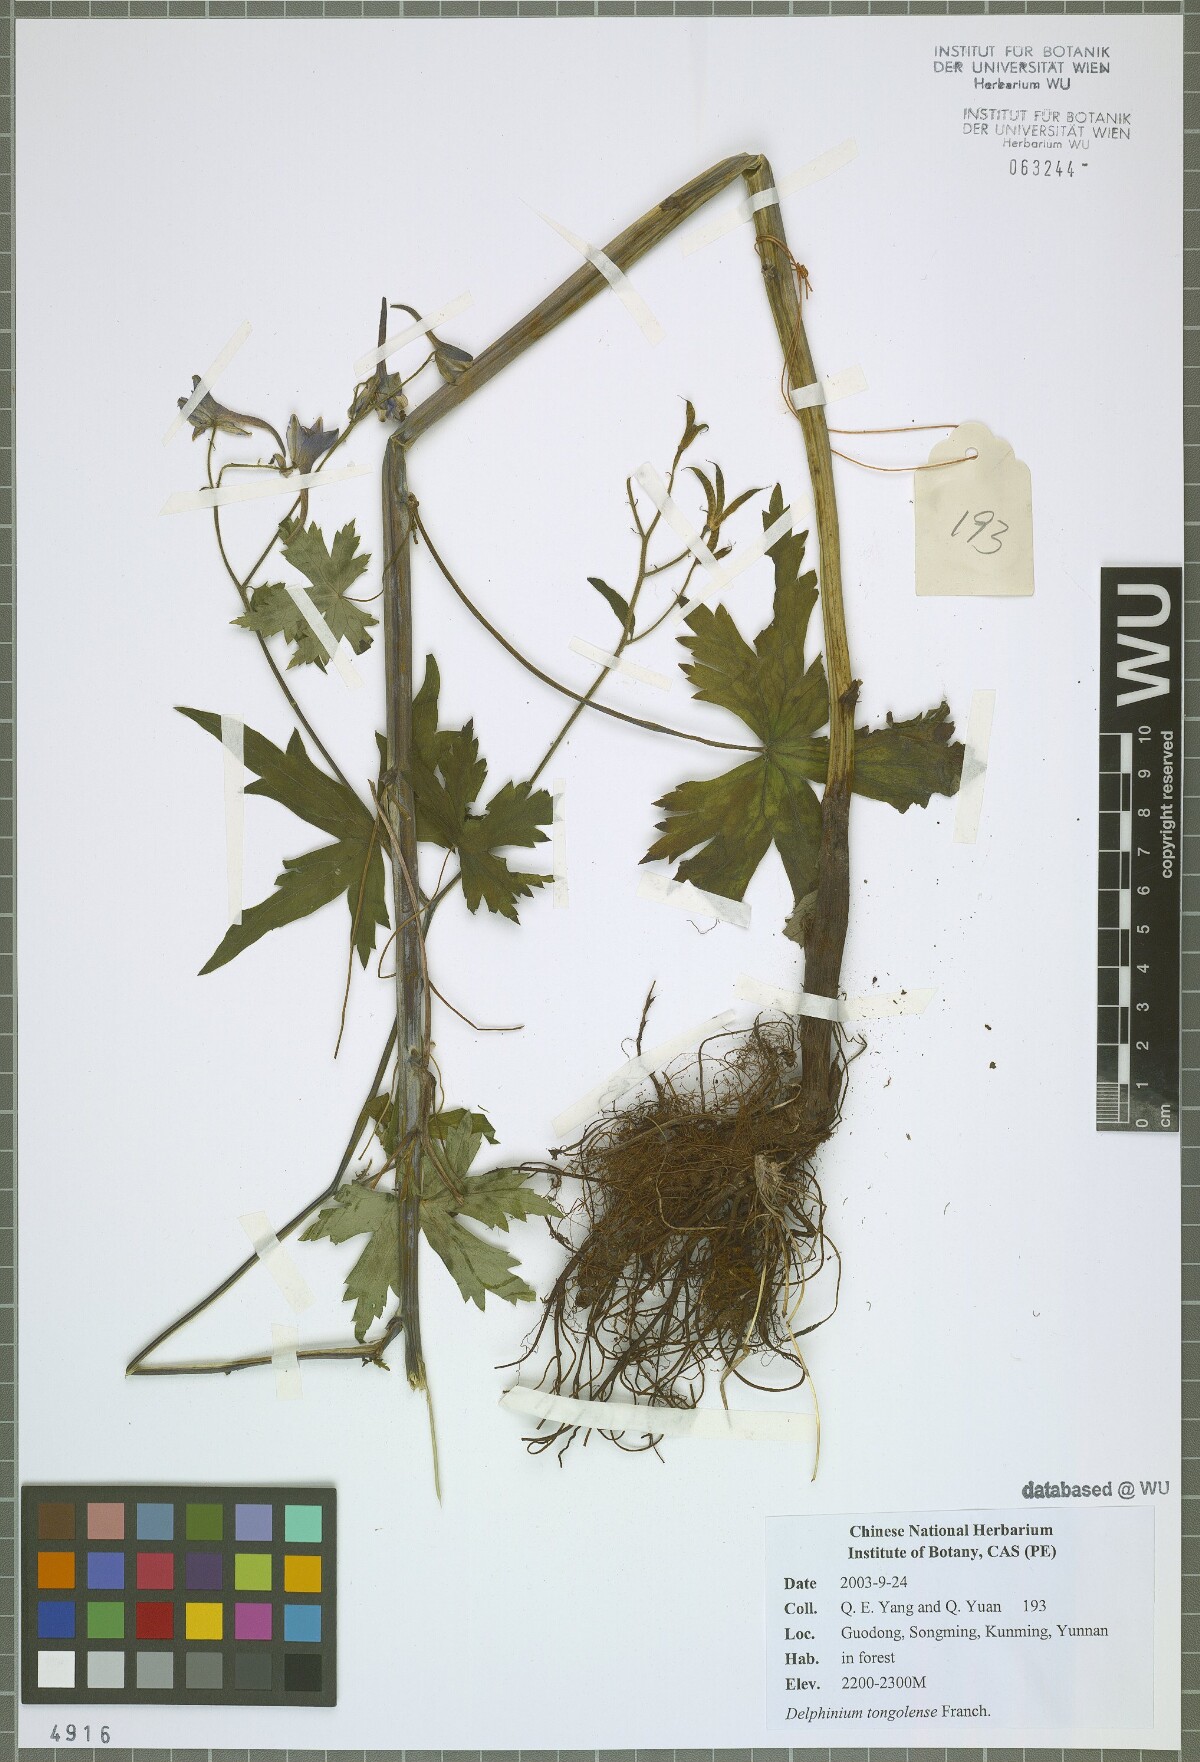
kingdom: Plantae
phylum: Tracheophyta
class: Magnoliopsida
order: Ranunculales
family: Ranunculaceae
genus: Delphinium
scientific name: Delphinium tongolense
